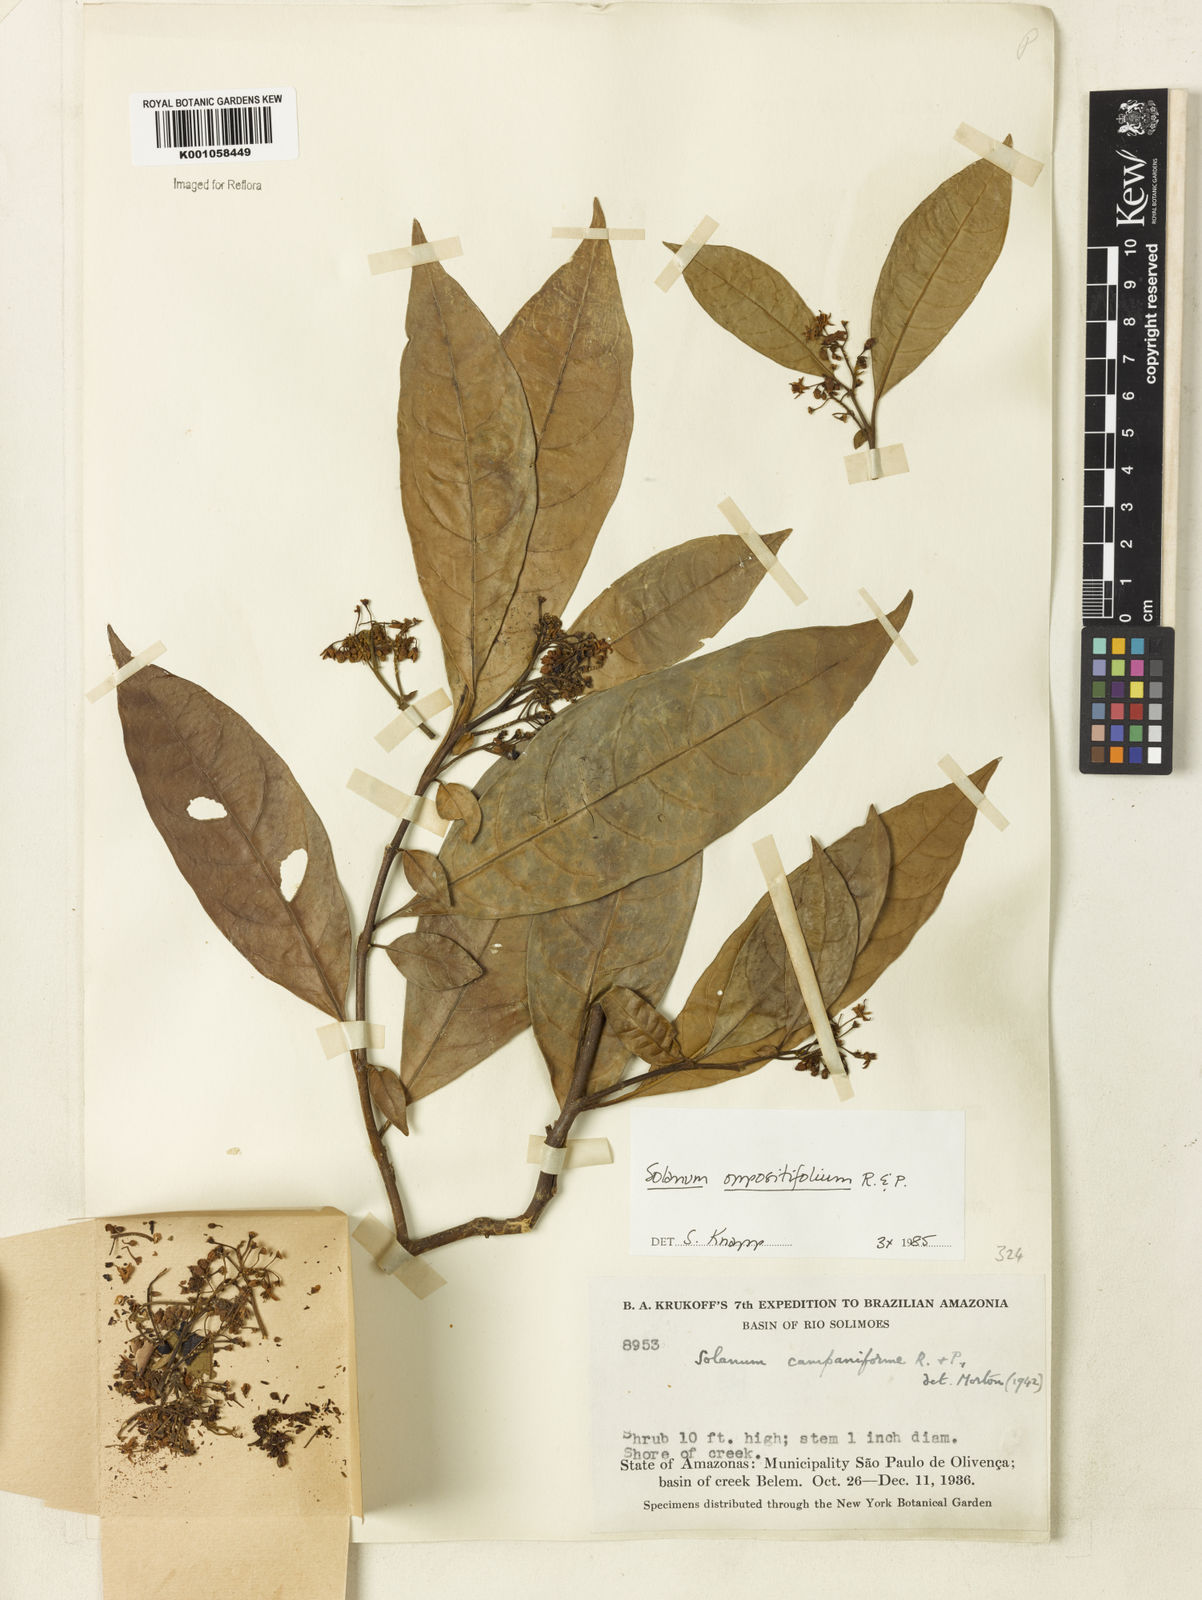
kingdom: Plantae
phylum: Tracheophyta
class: Magnoliopsida
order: Solanales
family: Solanaceae
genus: Solanum
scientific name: Solanum oppositifolium
